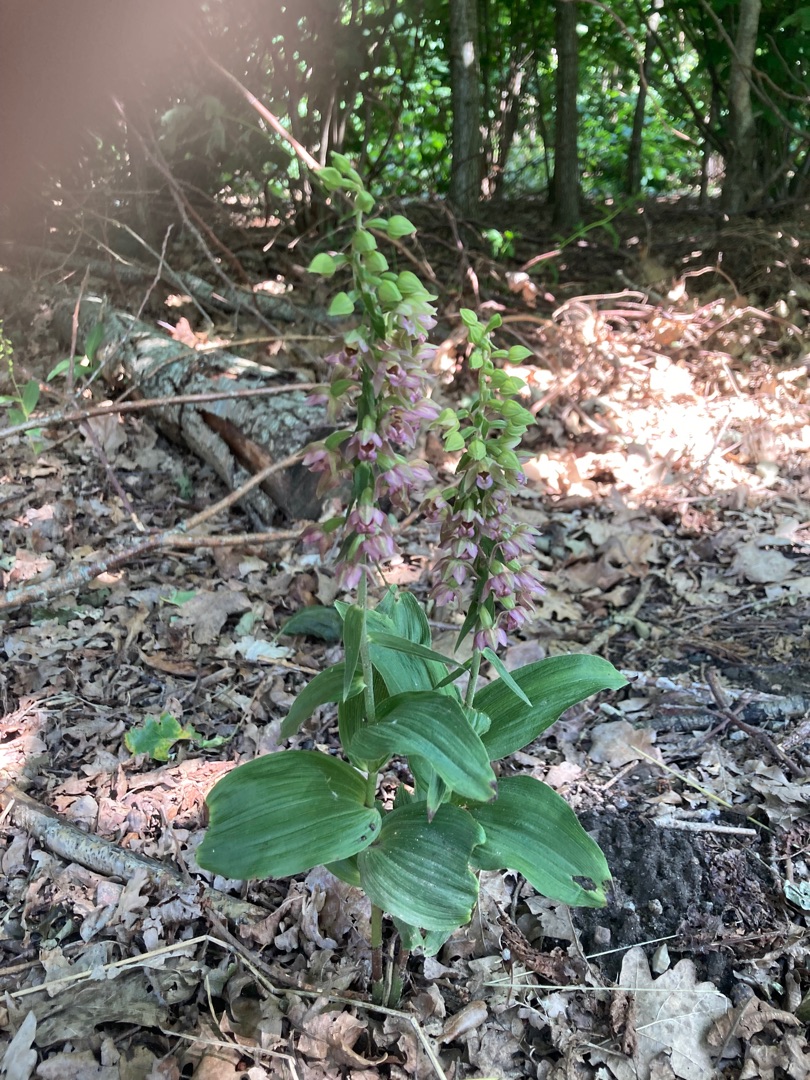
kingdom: Plantae
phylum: Tracheophyta
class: Liliopsida
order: Asparagales
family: Orchidaceae
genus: Epipactis
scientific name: Epipactis helleborine
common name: Skov-hullæbe
